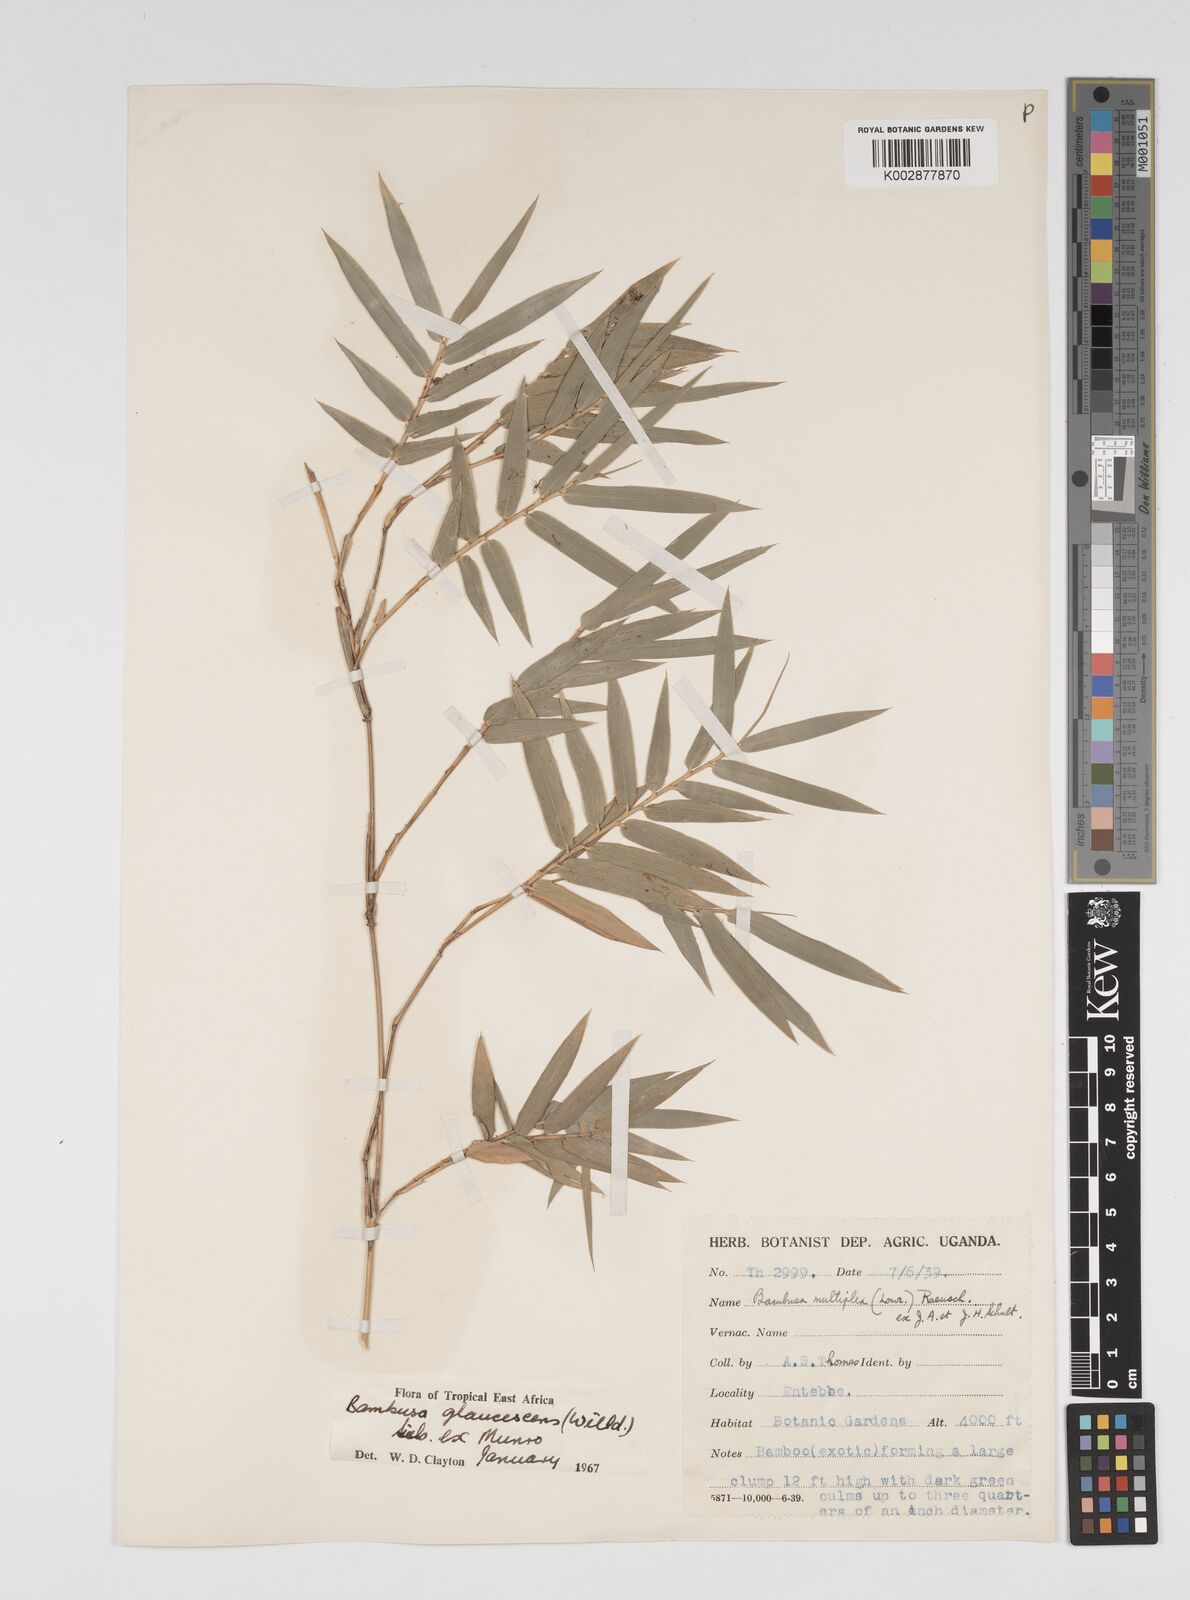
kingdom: Plantae
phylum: Tracheophyta
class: Liliopsida
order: Poales
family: Poaceae
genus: Bambusa
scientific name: Bambusa multiplex
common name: Hedge bamboo
